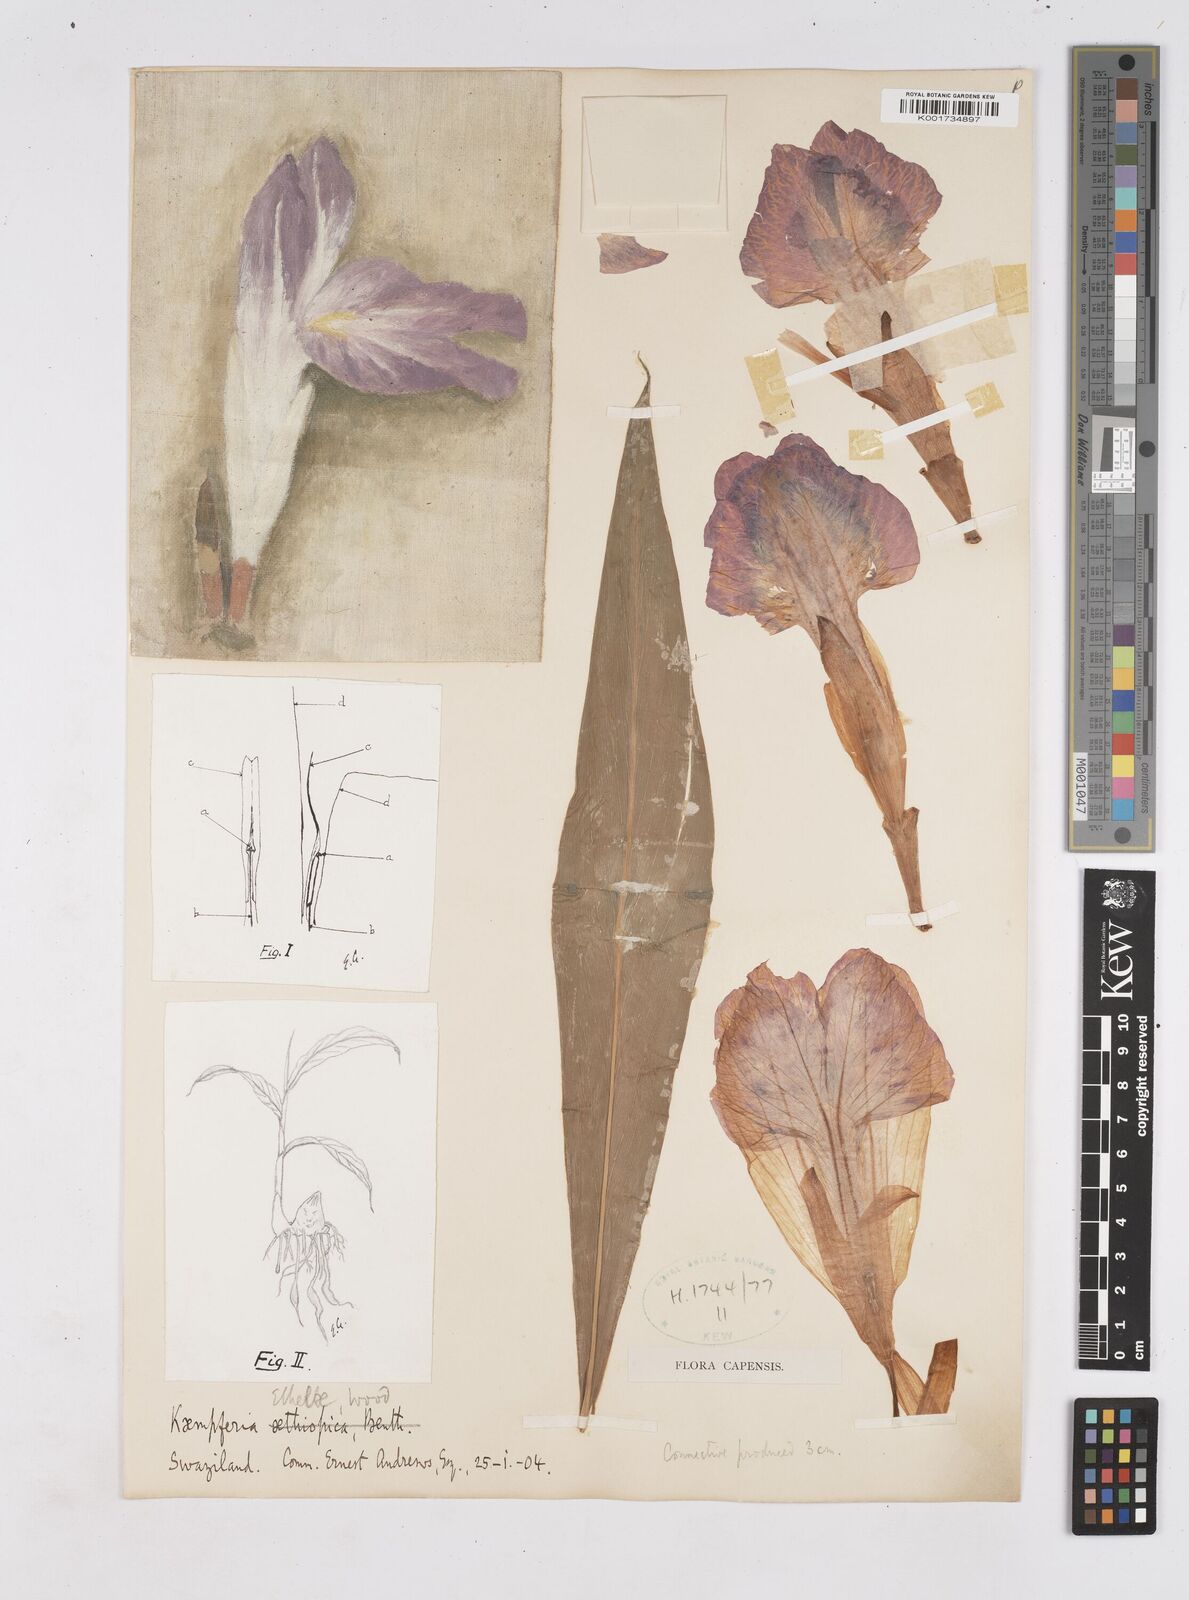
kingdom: Plantae
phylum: Tracheophyta
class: Liliopsida
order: Zingiberales
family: Zingiberaceae
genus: Siphonochilus
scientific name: Siphonochilus
